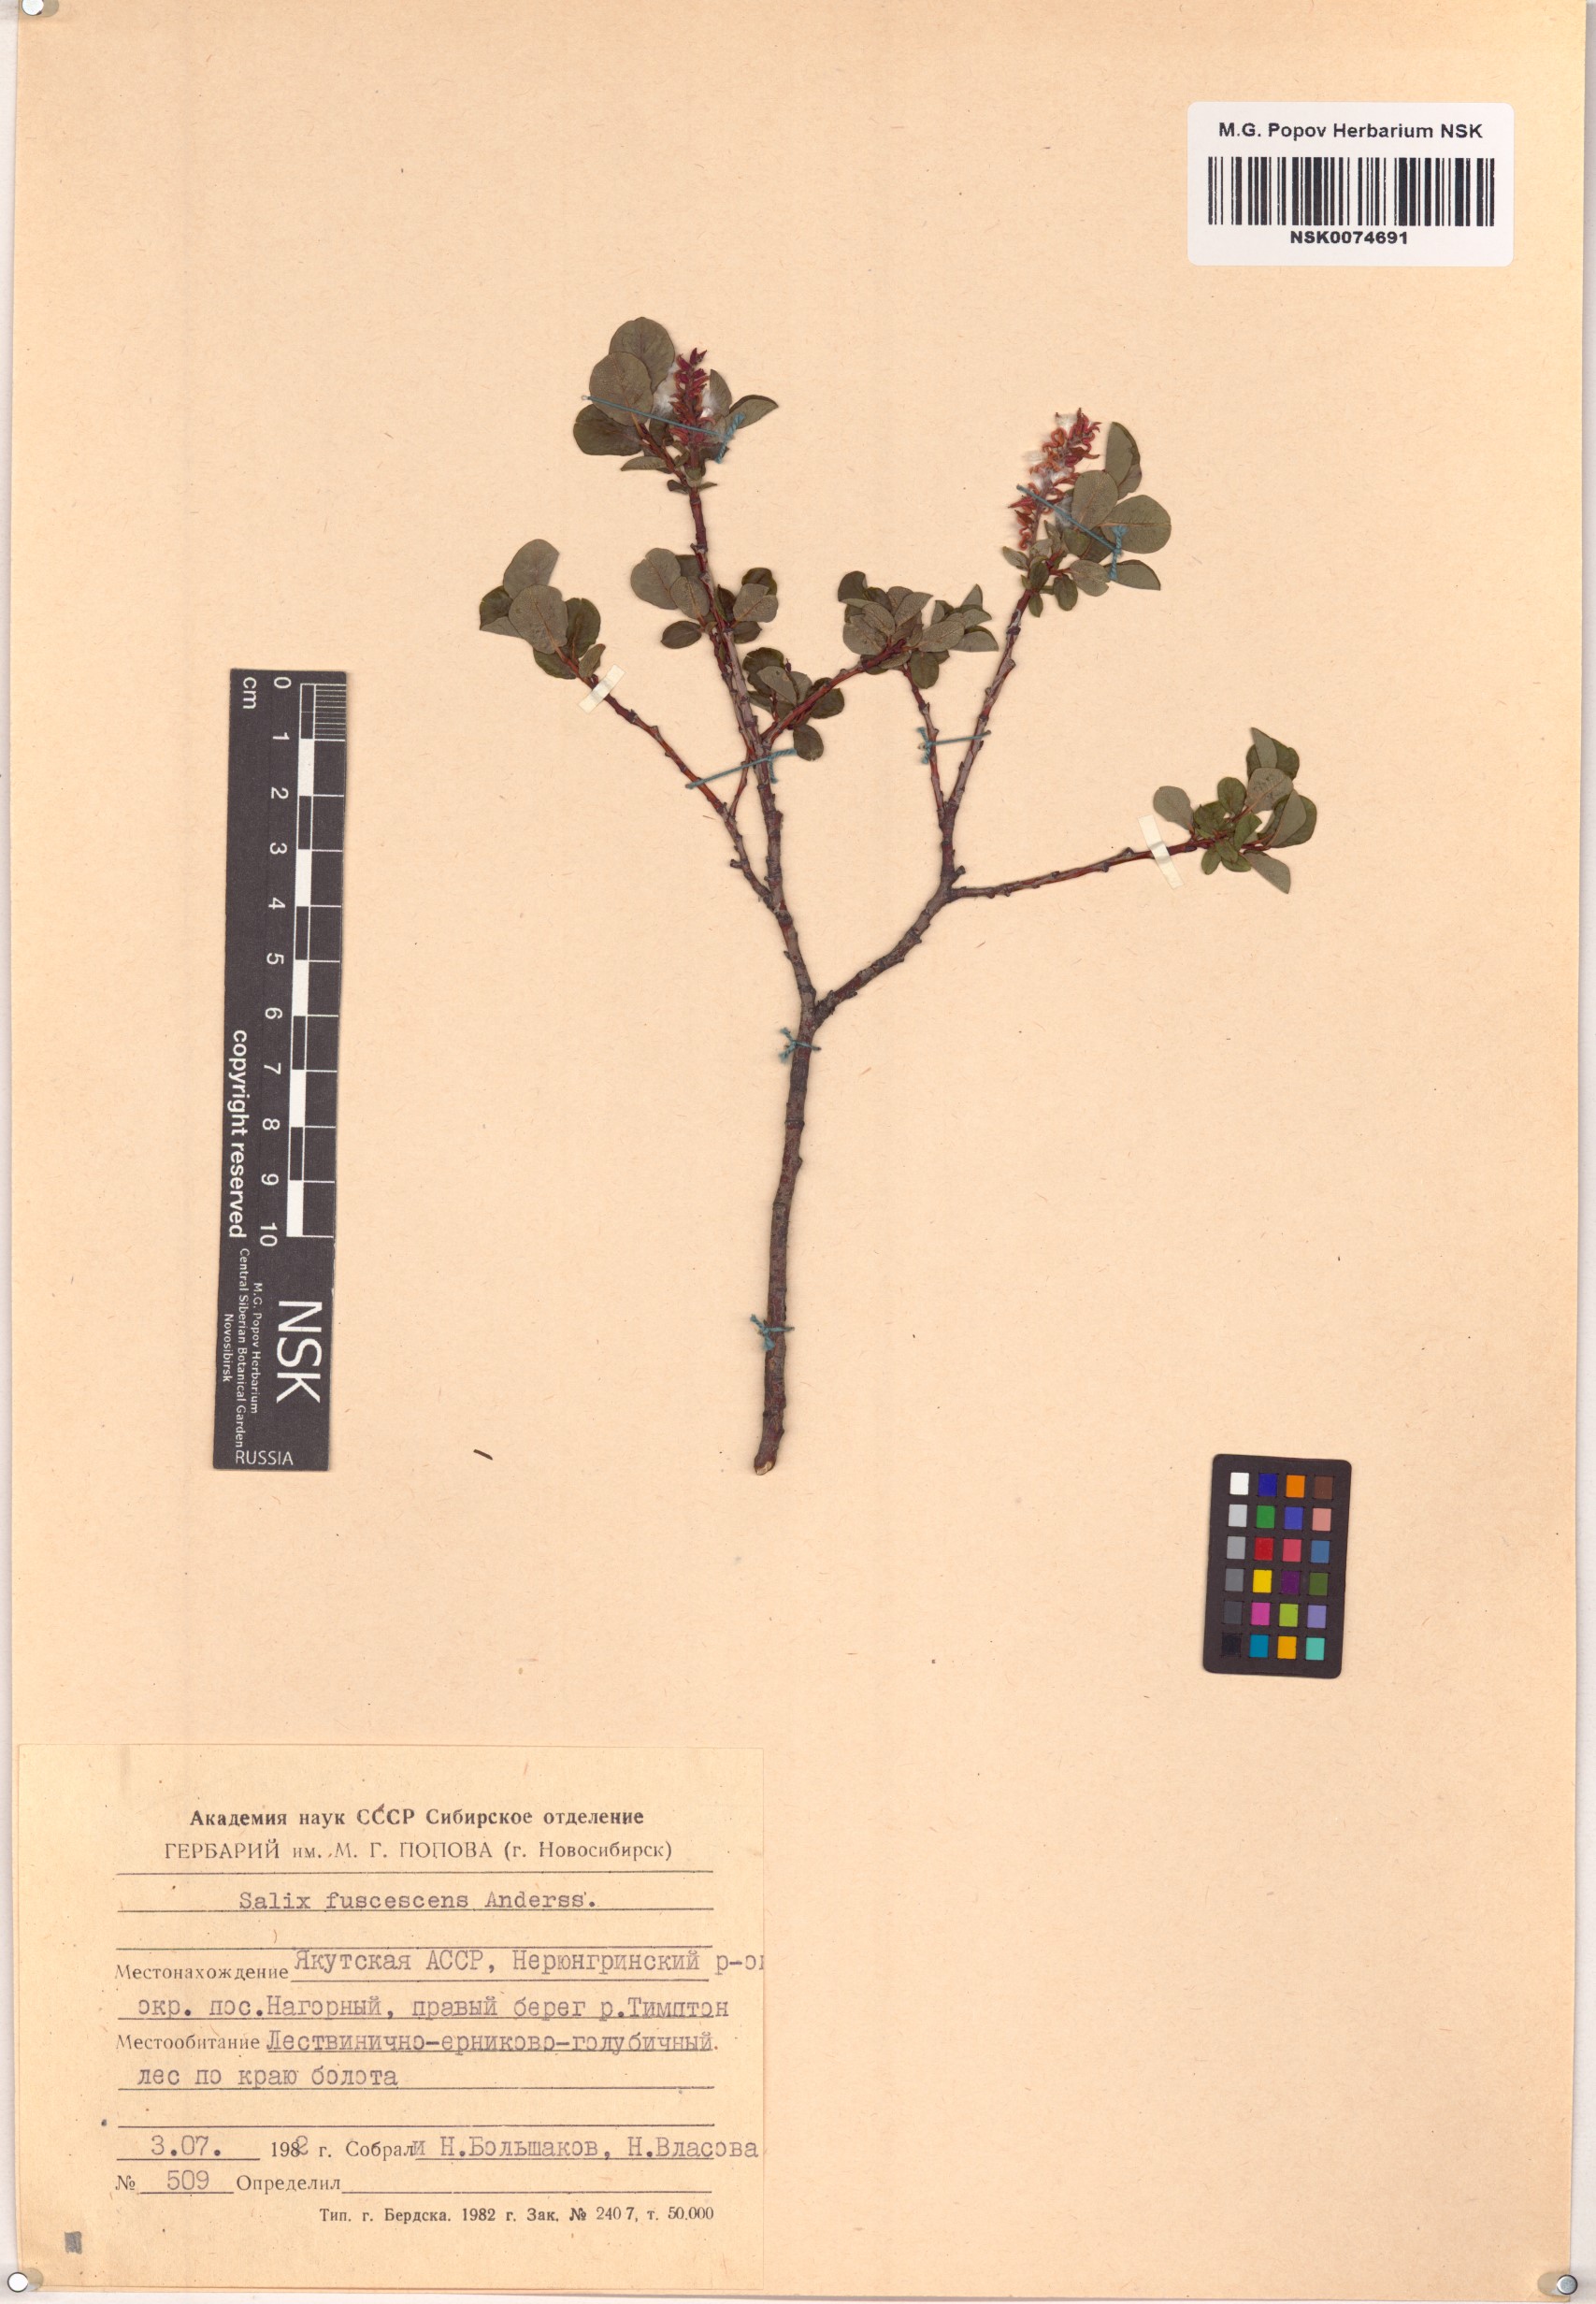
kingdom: Plantae
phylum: Tracheophyta
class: Magnoliopsida
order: Malpighiales
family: Salicaceae
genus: Salix
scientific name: Salix fuscescens
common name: Brownish willow
